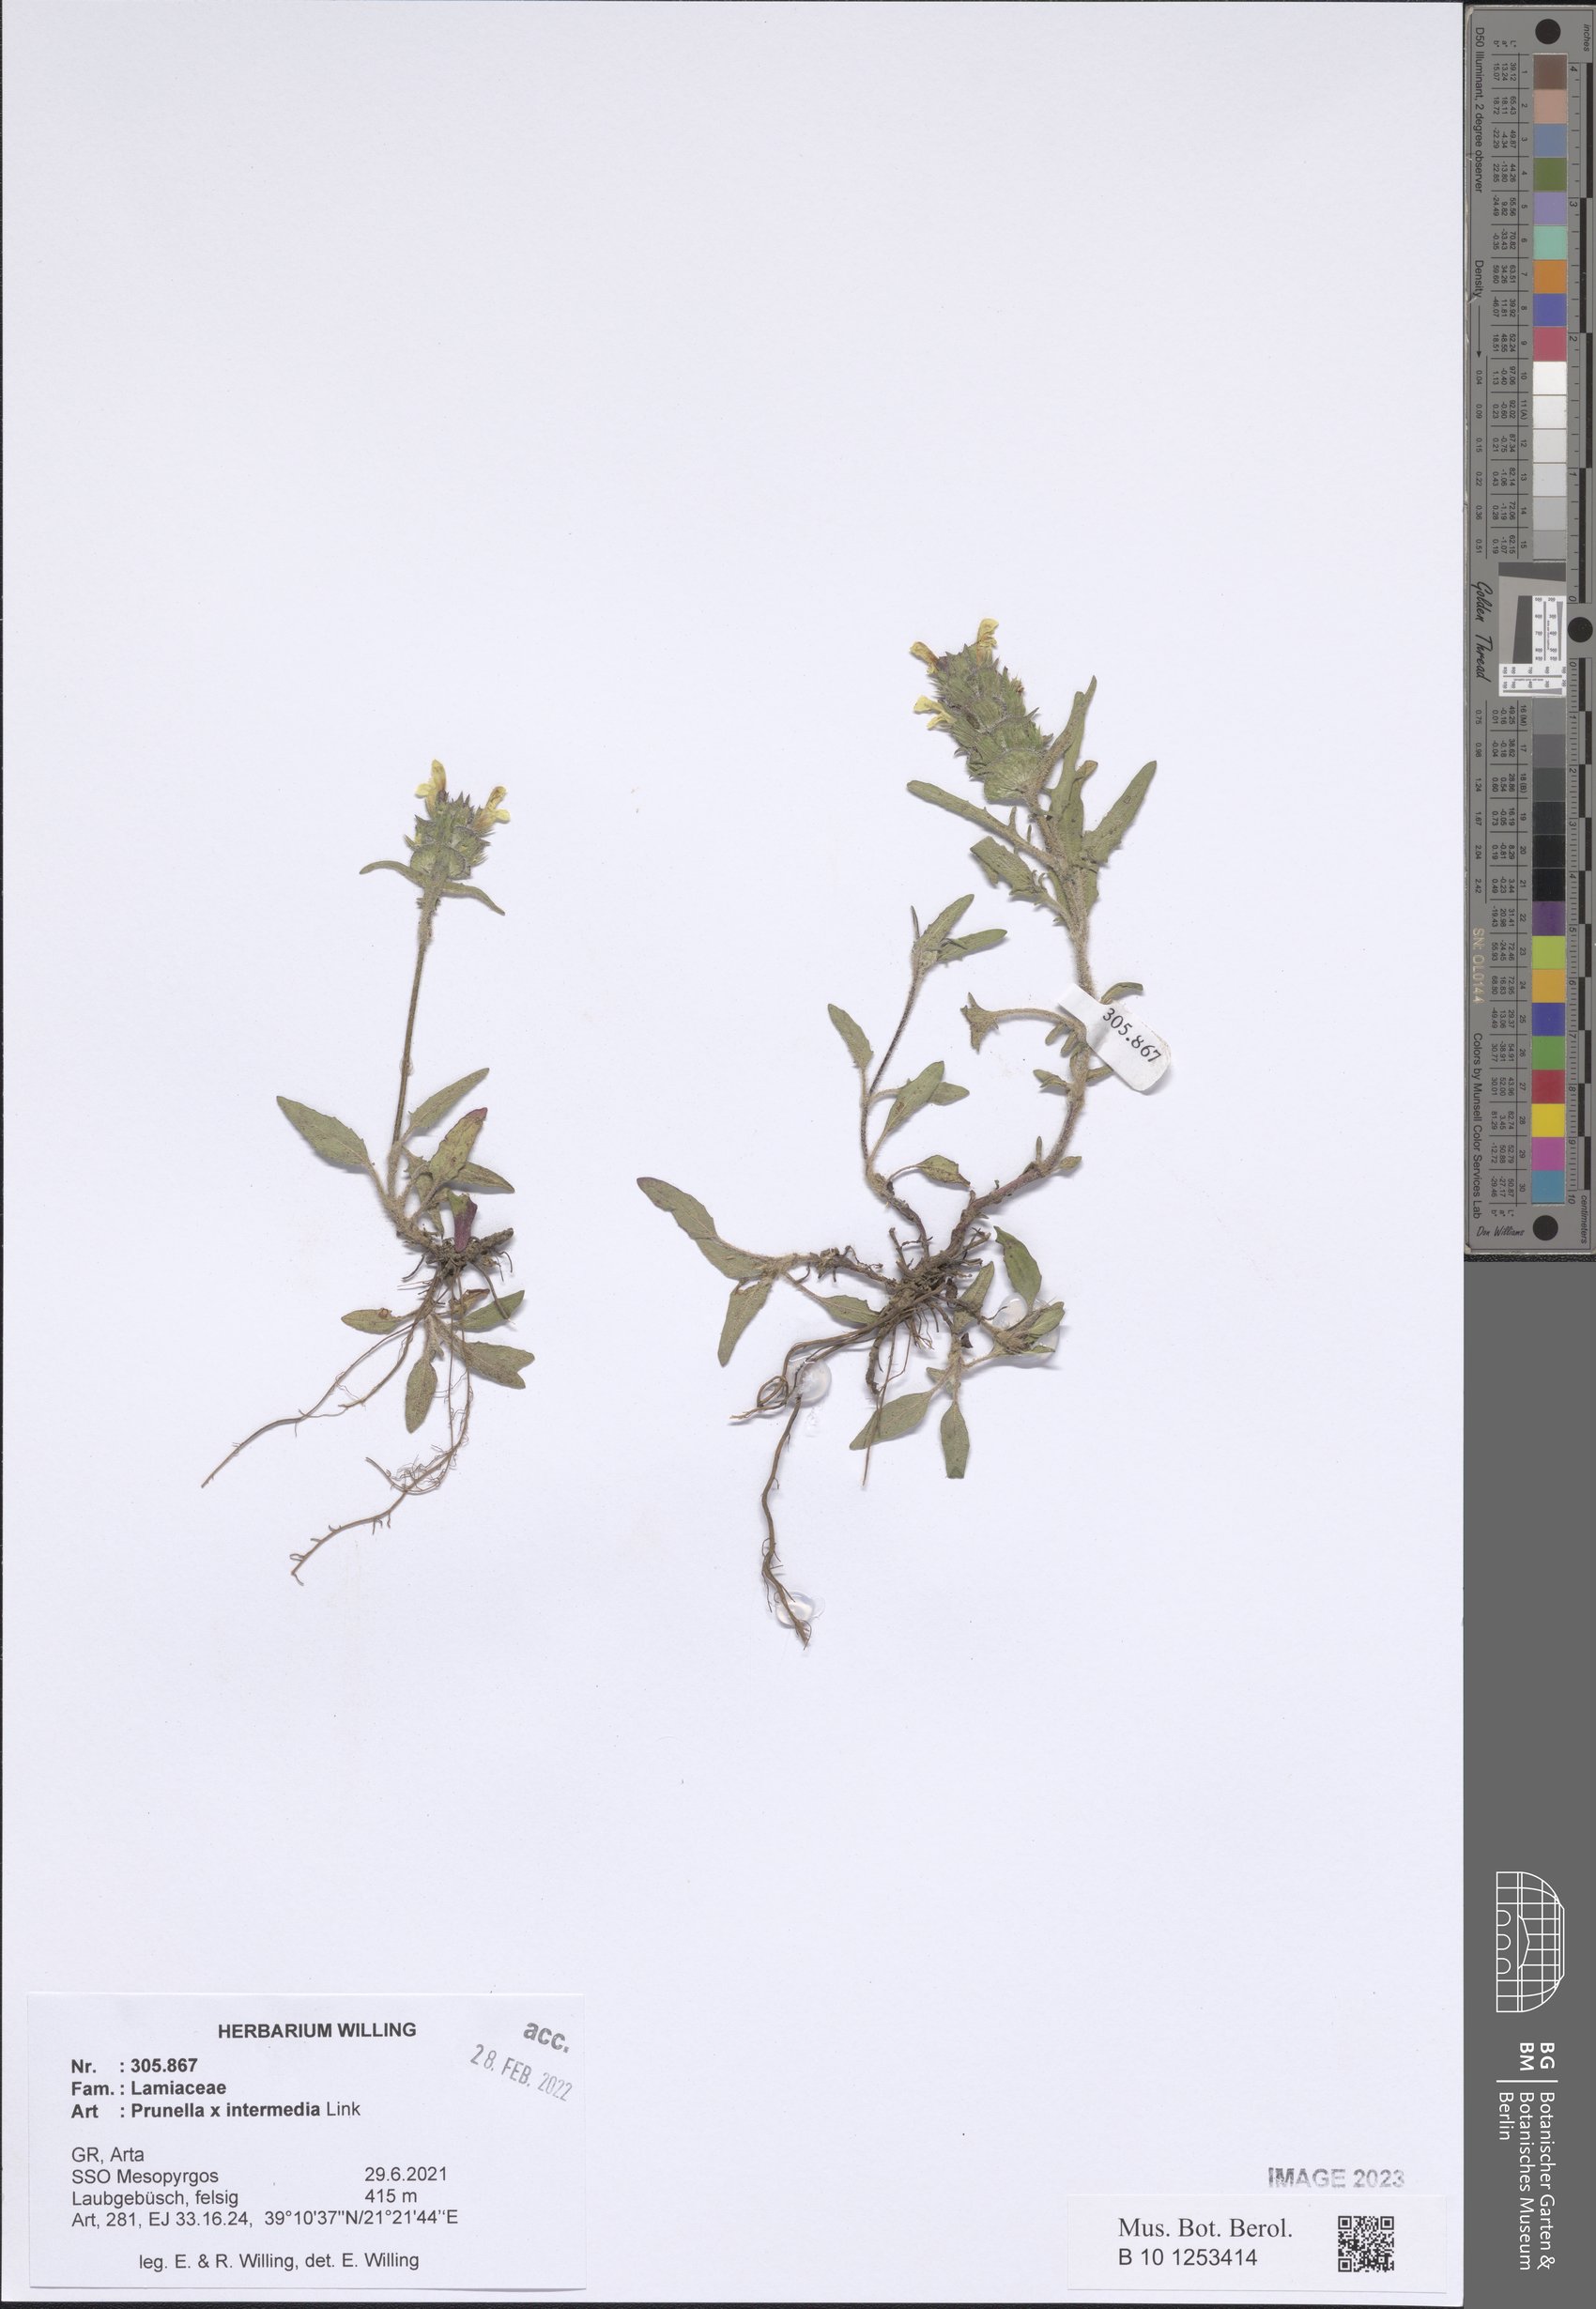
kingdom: Plantae
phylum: Tracheophyta
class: Magnoliopsida
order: Lamiales
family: Lamiaceae
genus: Prunella
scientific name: Prunella
